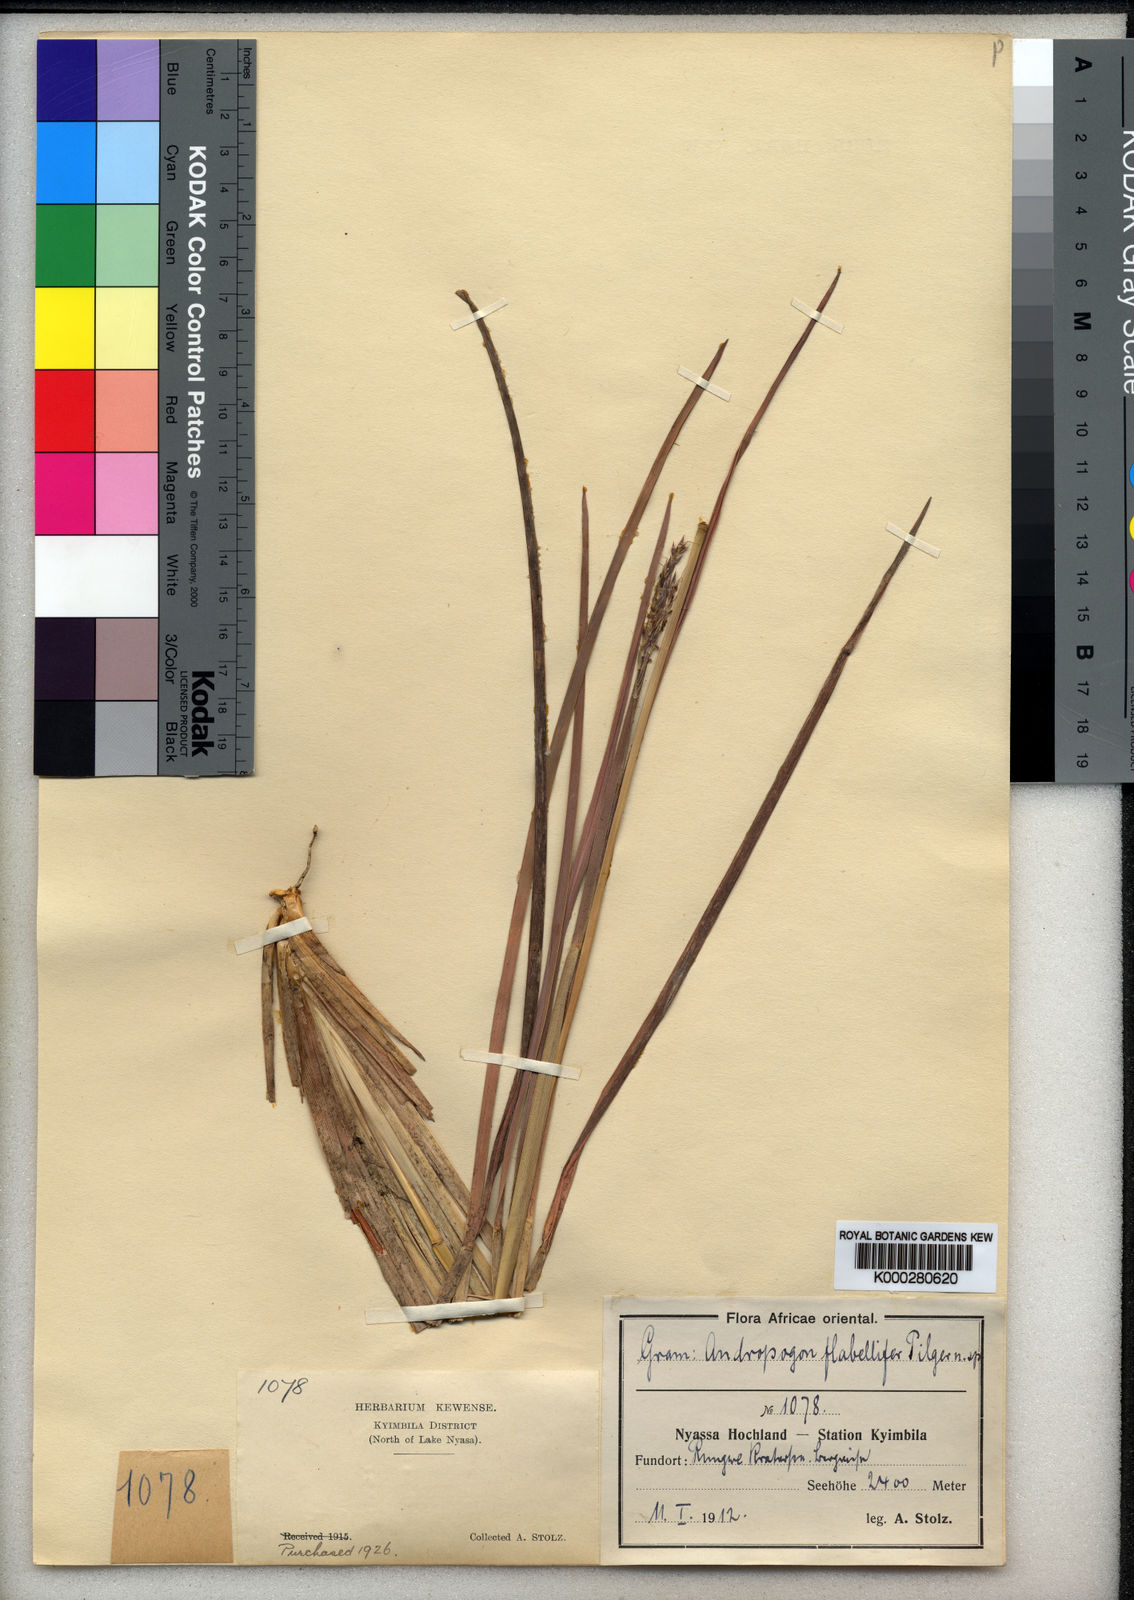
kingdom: Plantae
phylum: Tracheophyta
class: Liliopsida
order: Poales
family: Poaceae
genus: Andropogon
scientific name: Andropogon mannii
